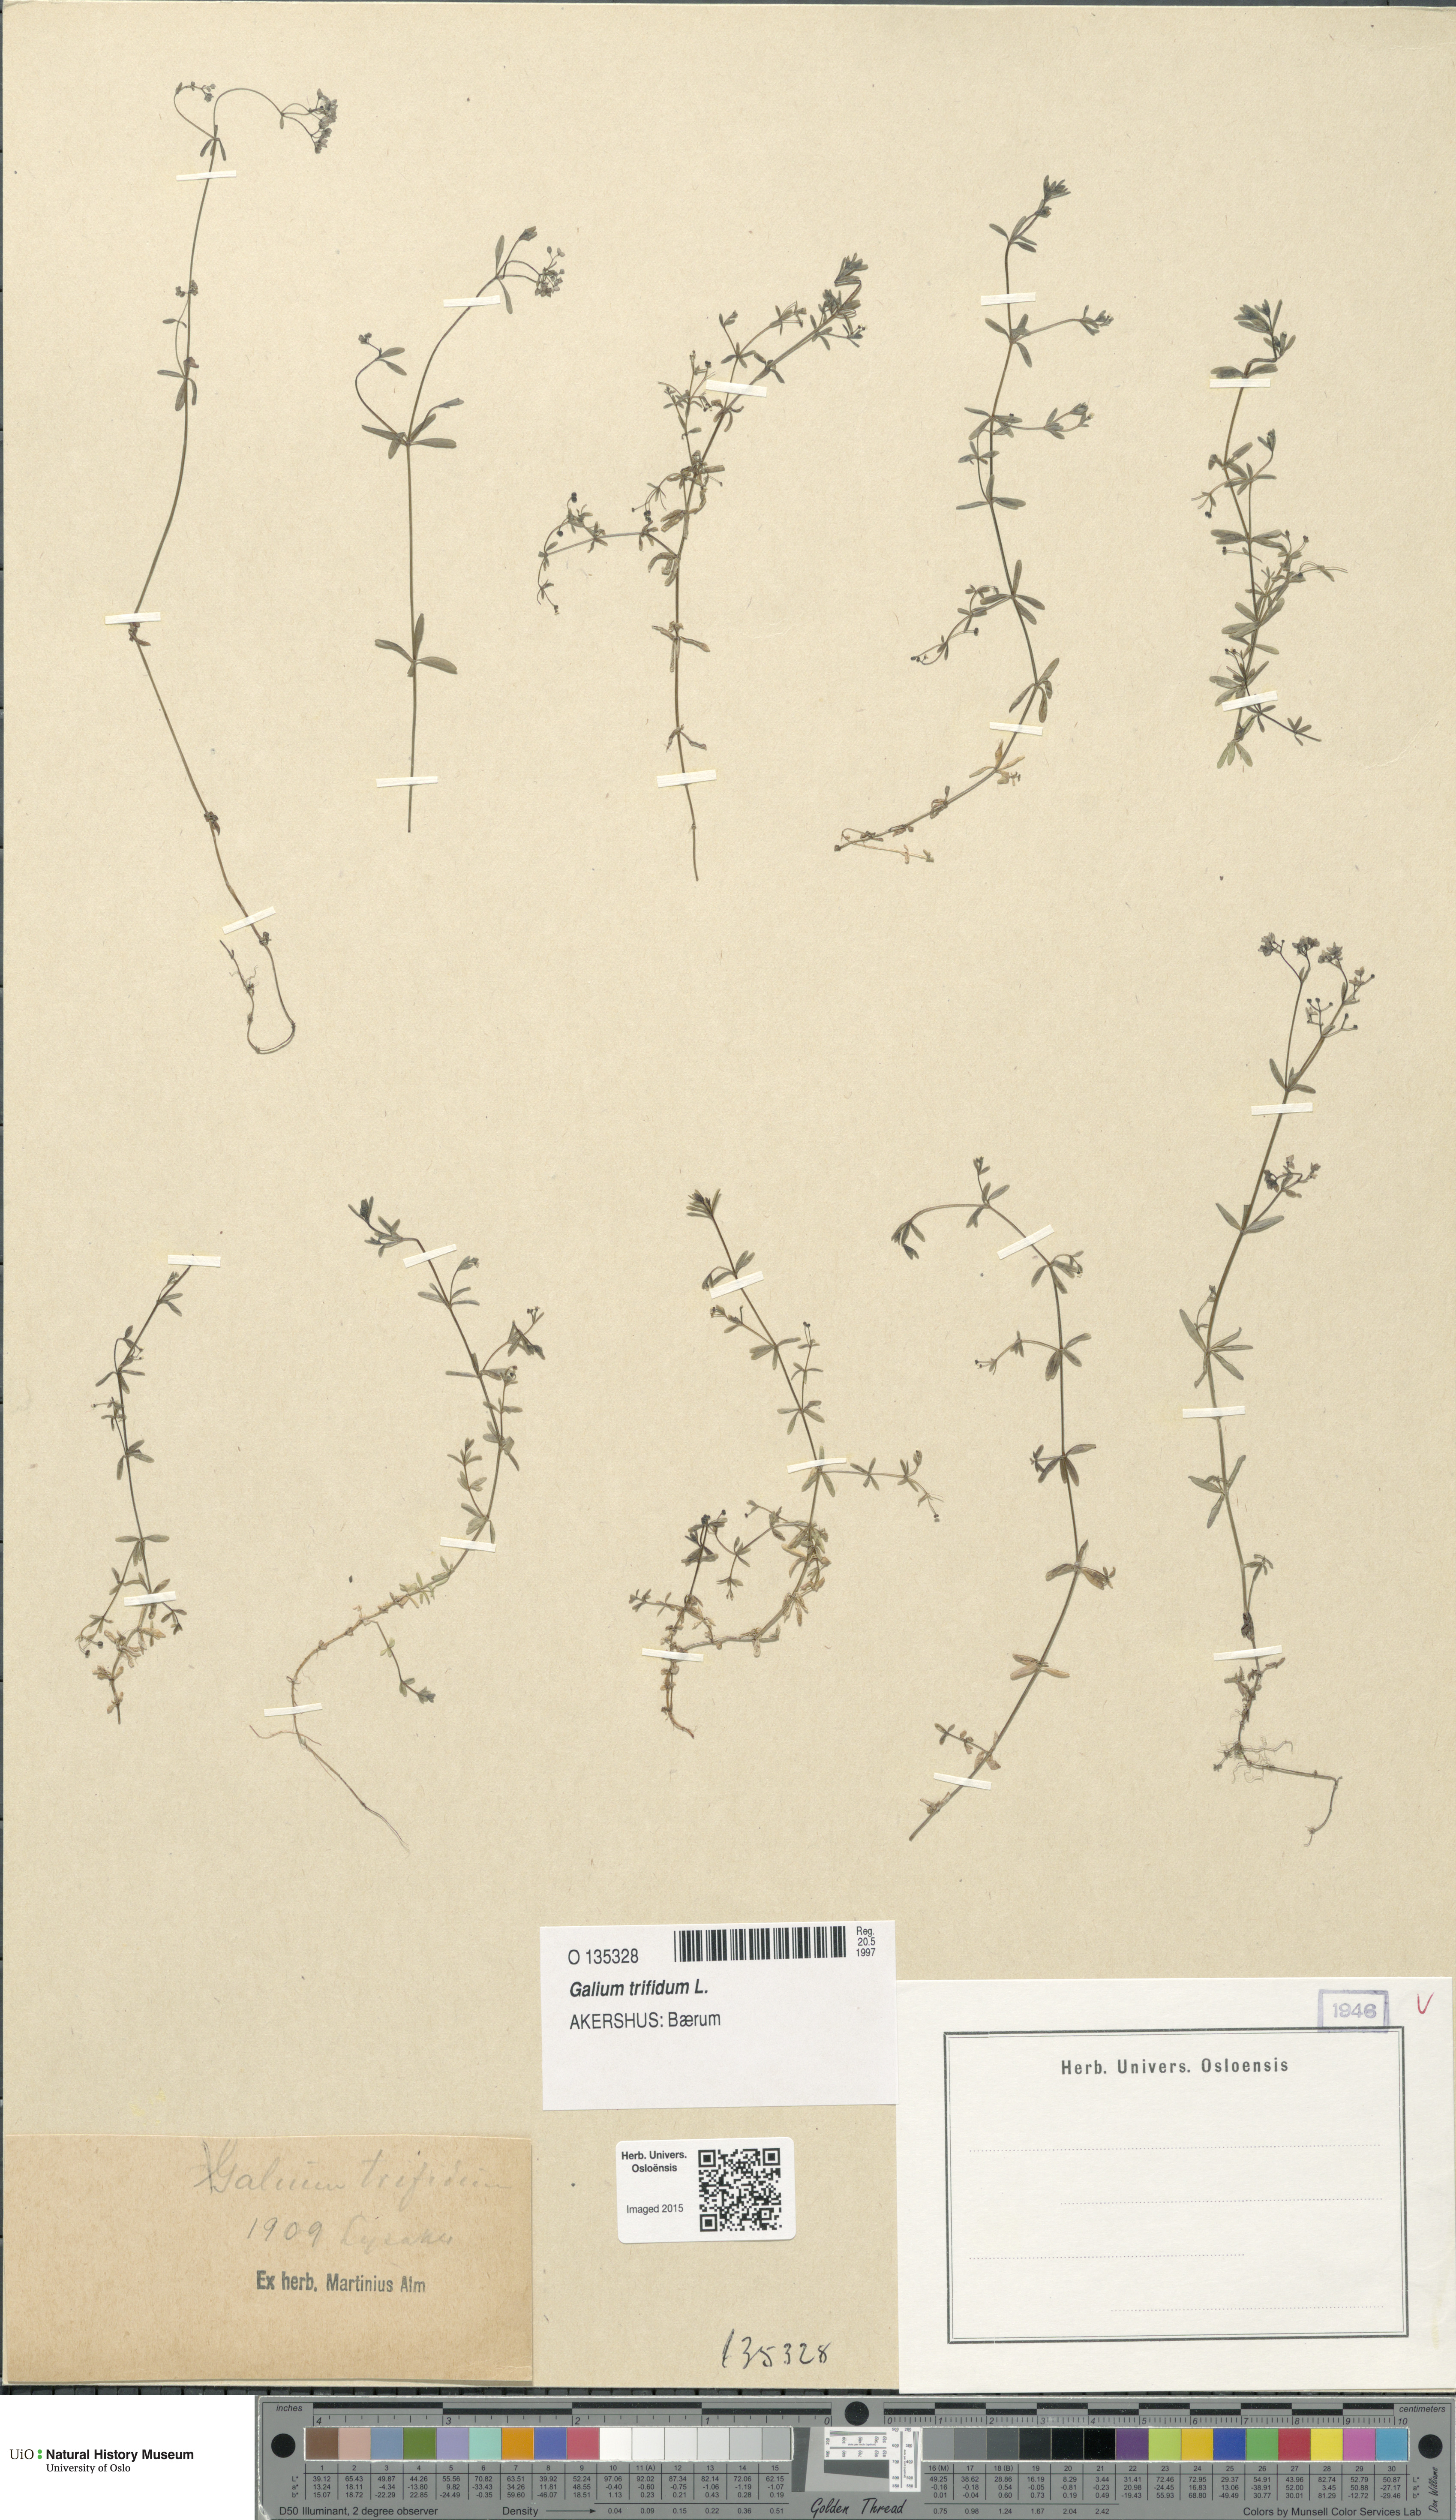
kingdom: Plantae
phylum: Tracheophyta
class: Magnoliopsida
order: Gentianales
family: Rubiaceae
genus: Galium
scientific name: Galium trifidum
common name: Small bedstraw
